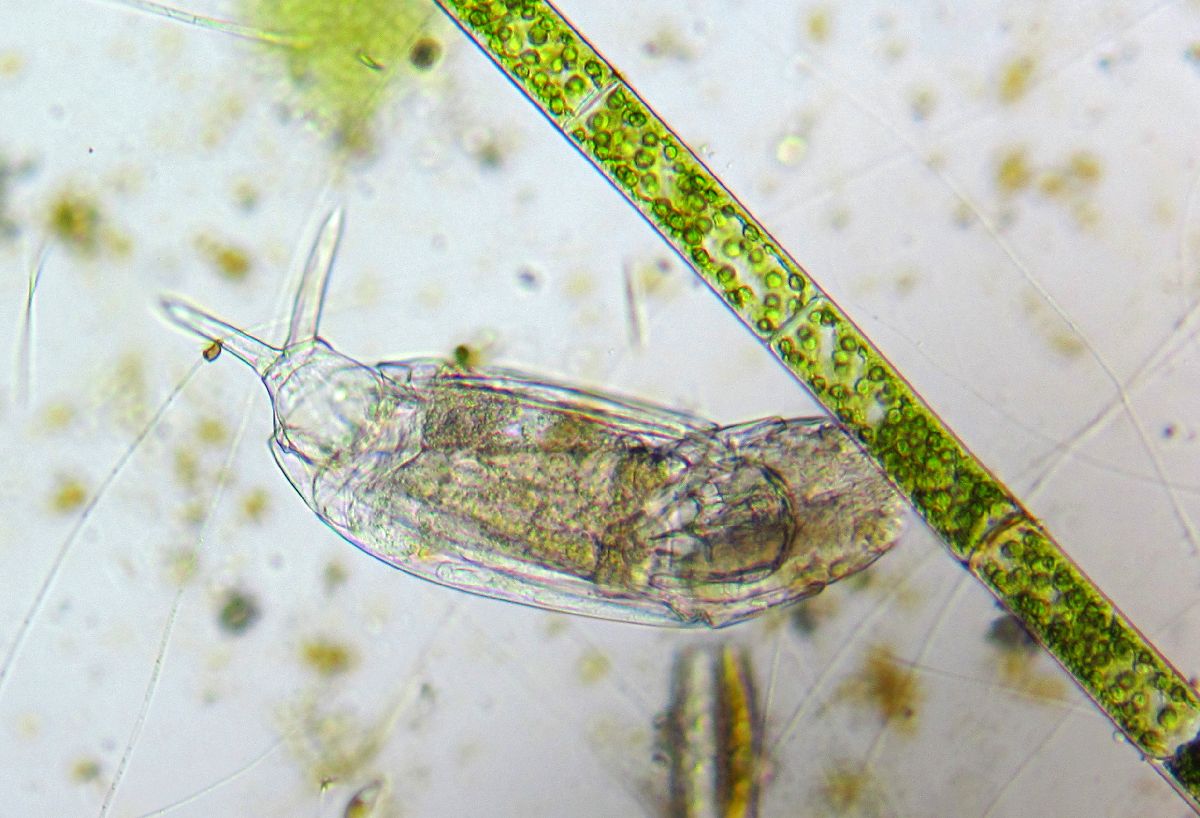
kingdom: Animalia
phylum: Rotifera
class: Eurotatoria
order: Ploima
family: Dicranophoridae
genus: Dicranophorus
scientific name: Dicranophorus grandis
